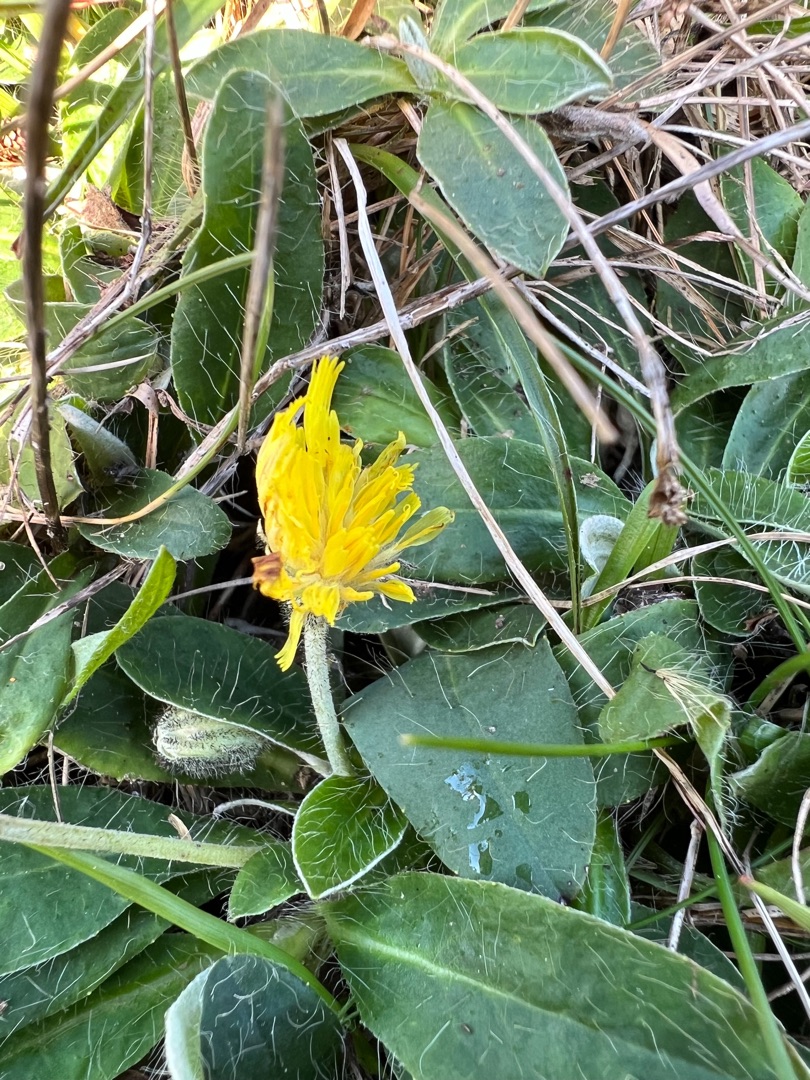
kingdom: Plantae
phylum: Tracheophyta
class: Magnoliopsida
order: Asterales
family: Asteraceae
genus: Pilosella
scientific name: Pilosella officinarum
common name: Håret høgeurt
